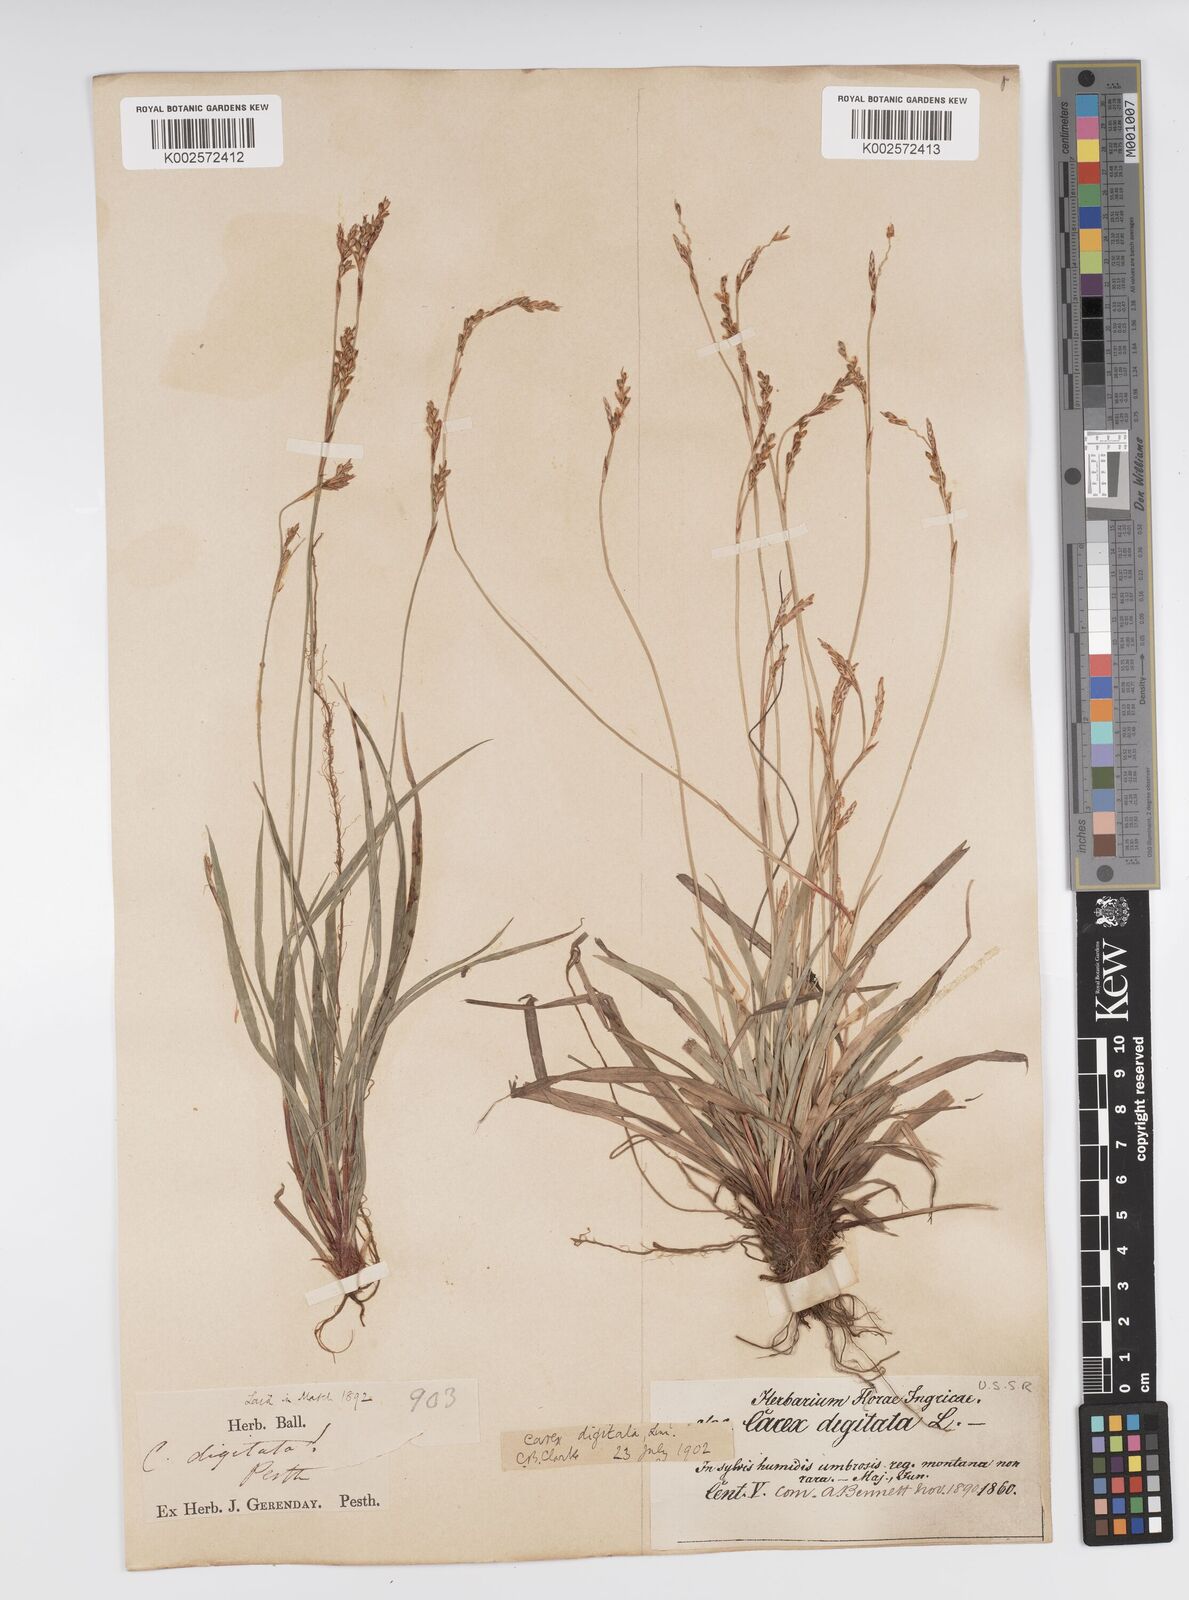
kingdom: Plantae
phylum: Tracheophyta
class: Liliopsida
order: Poales
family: Cyperaceae
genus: Carex
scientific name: Carex digitata
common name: Fingered sedge
